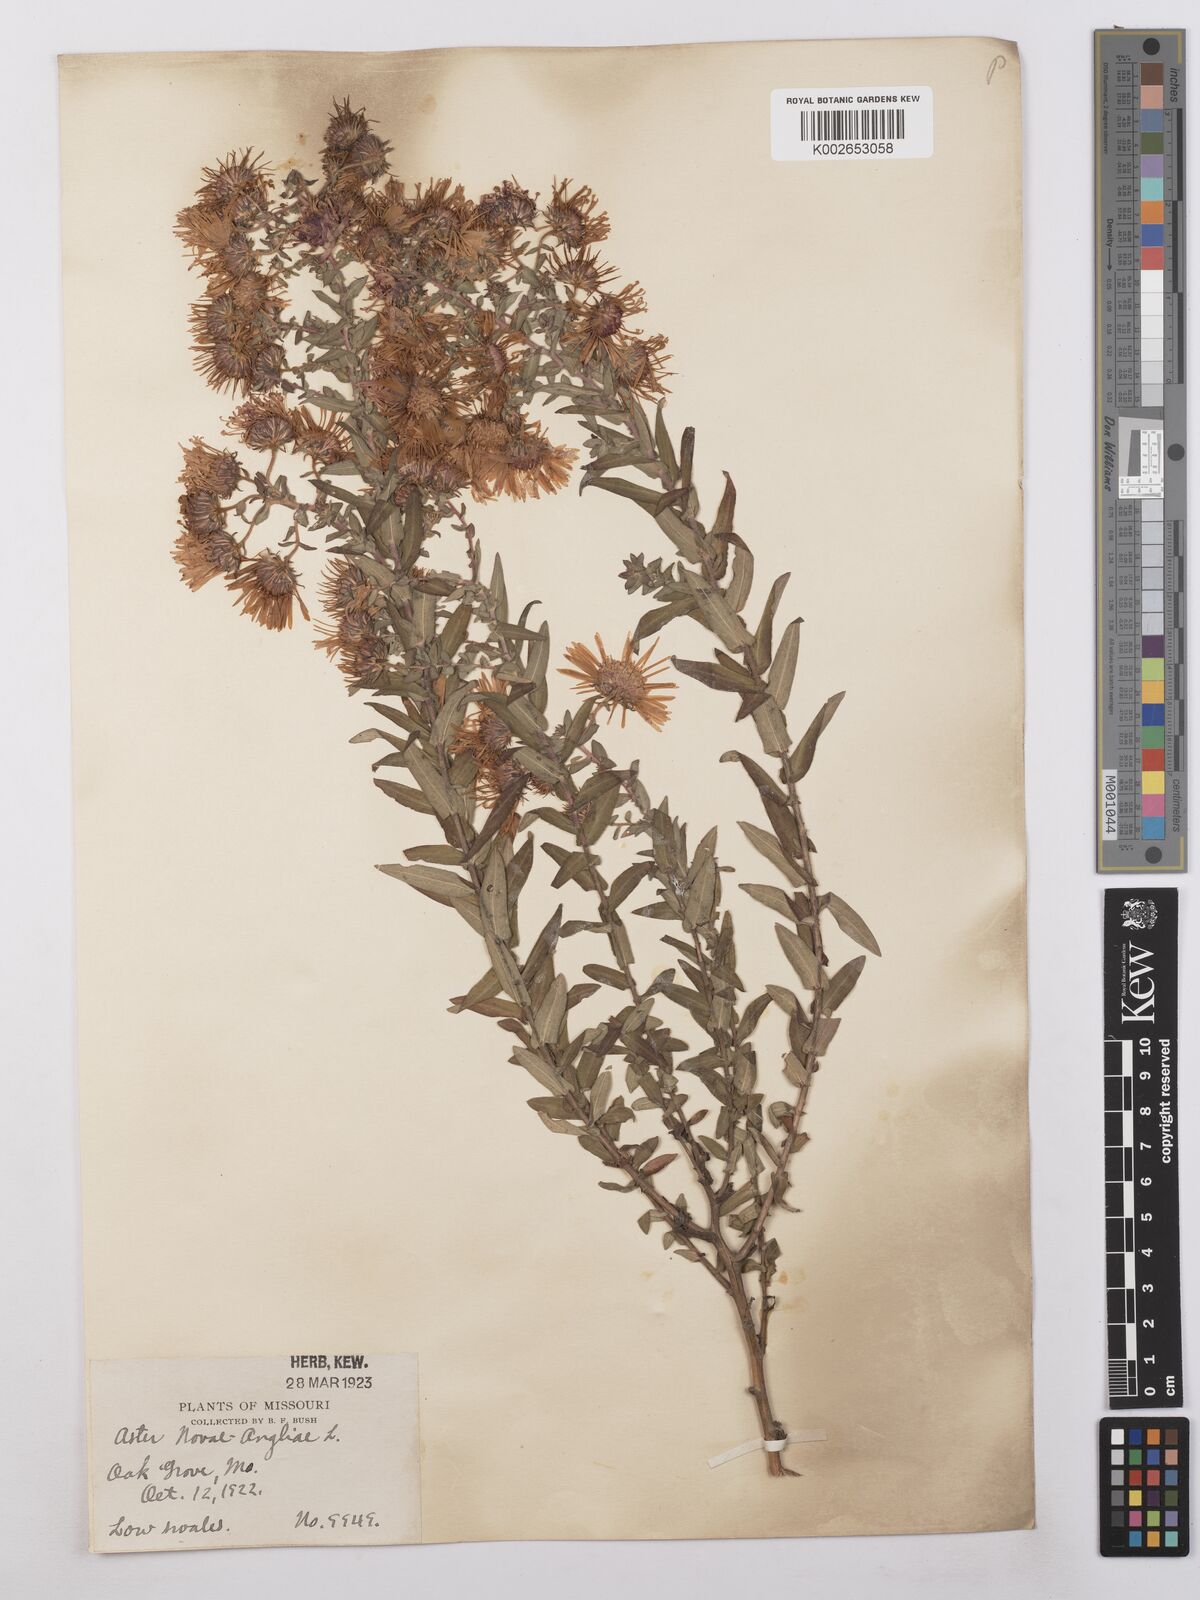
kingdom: Plantae
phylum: Tracheophyta
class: Magnoliopsida
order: Asterales
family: Asteraceae
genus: Symphyotrichum
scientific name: Symphyotrichum novae-angliae
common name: Michaelmas daisy
